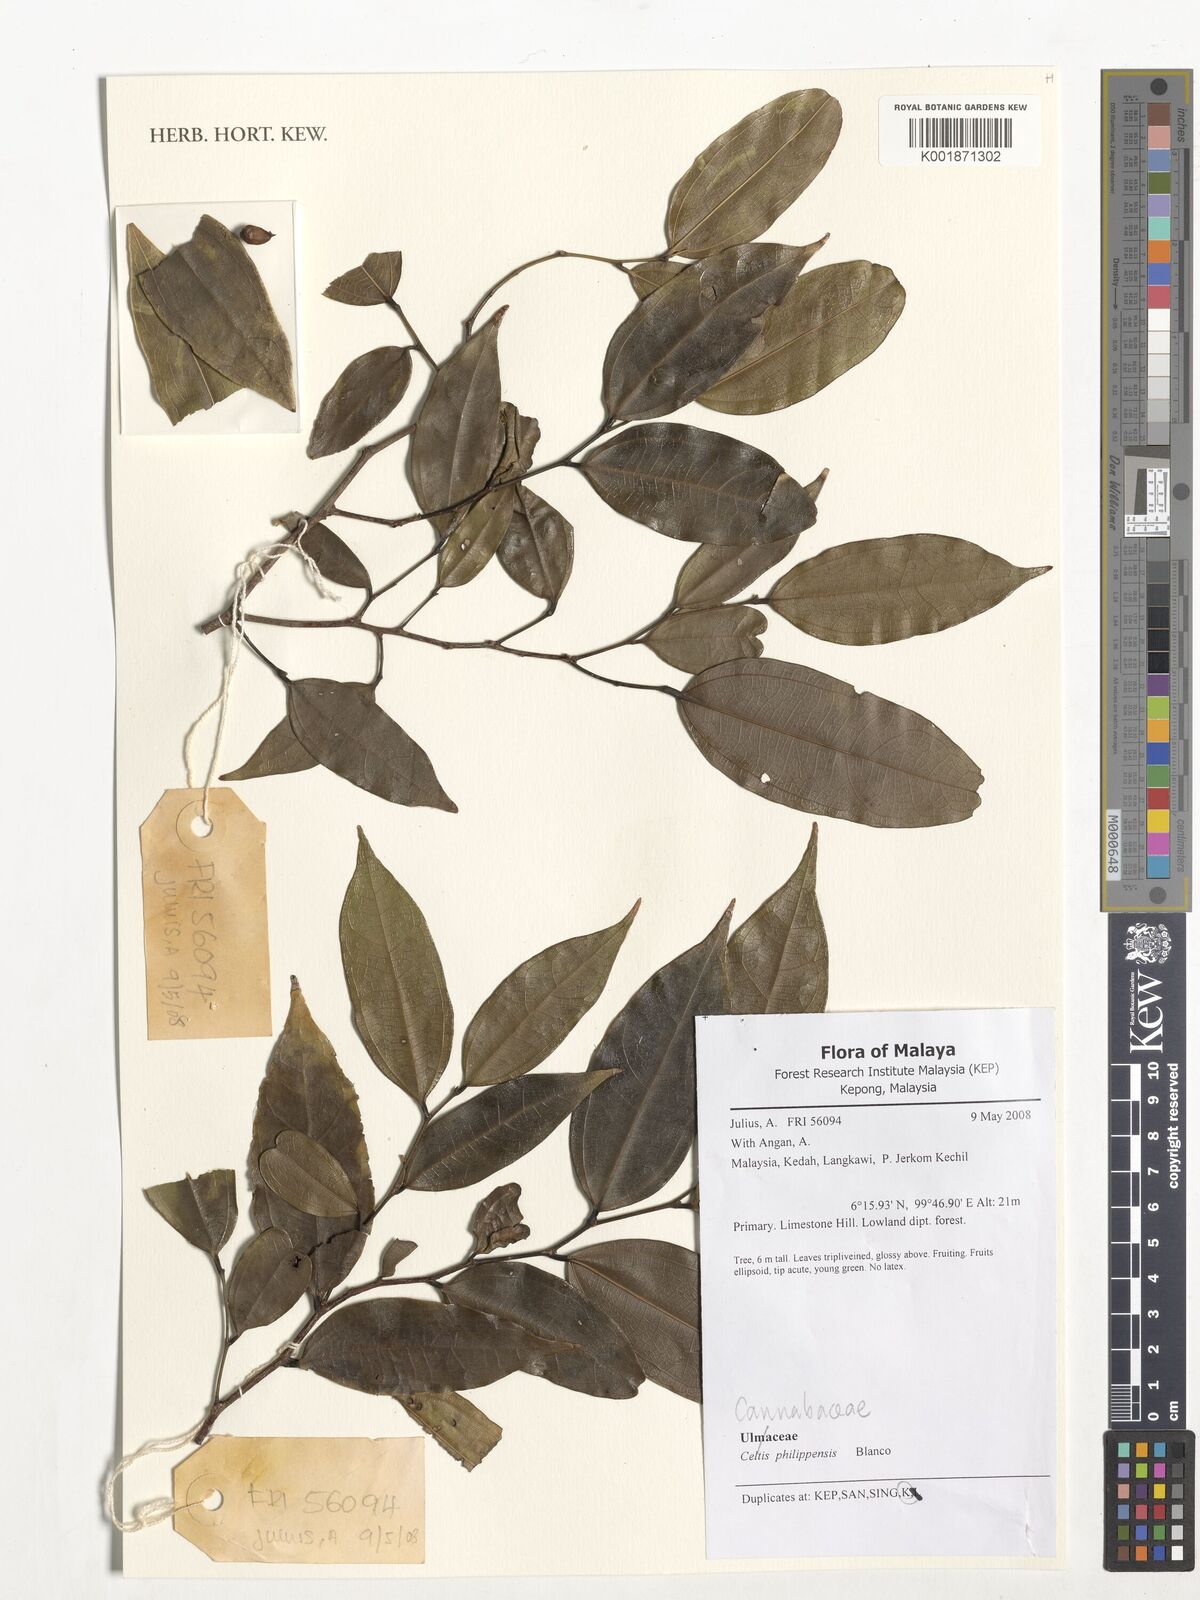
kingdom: Plantae
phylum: Tracheophyta
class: Magnoliopsida
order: Rosales
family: Cannabaceae
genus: Celtis
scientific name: Celtis philippensis
